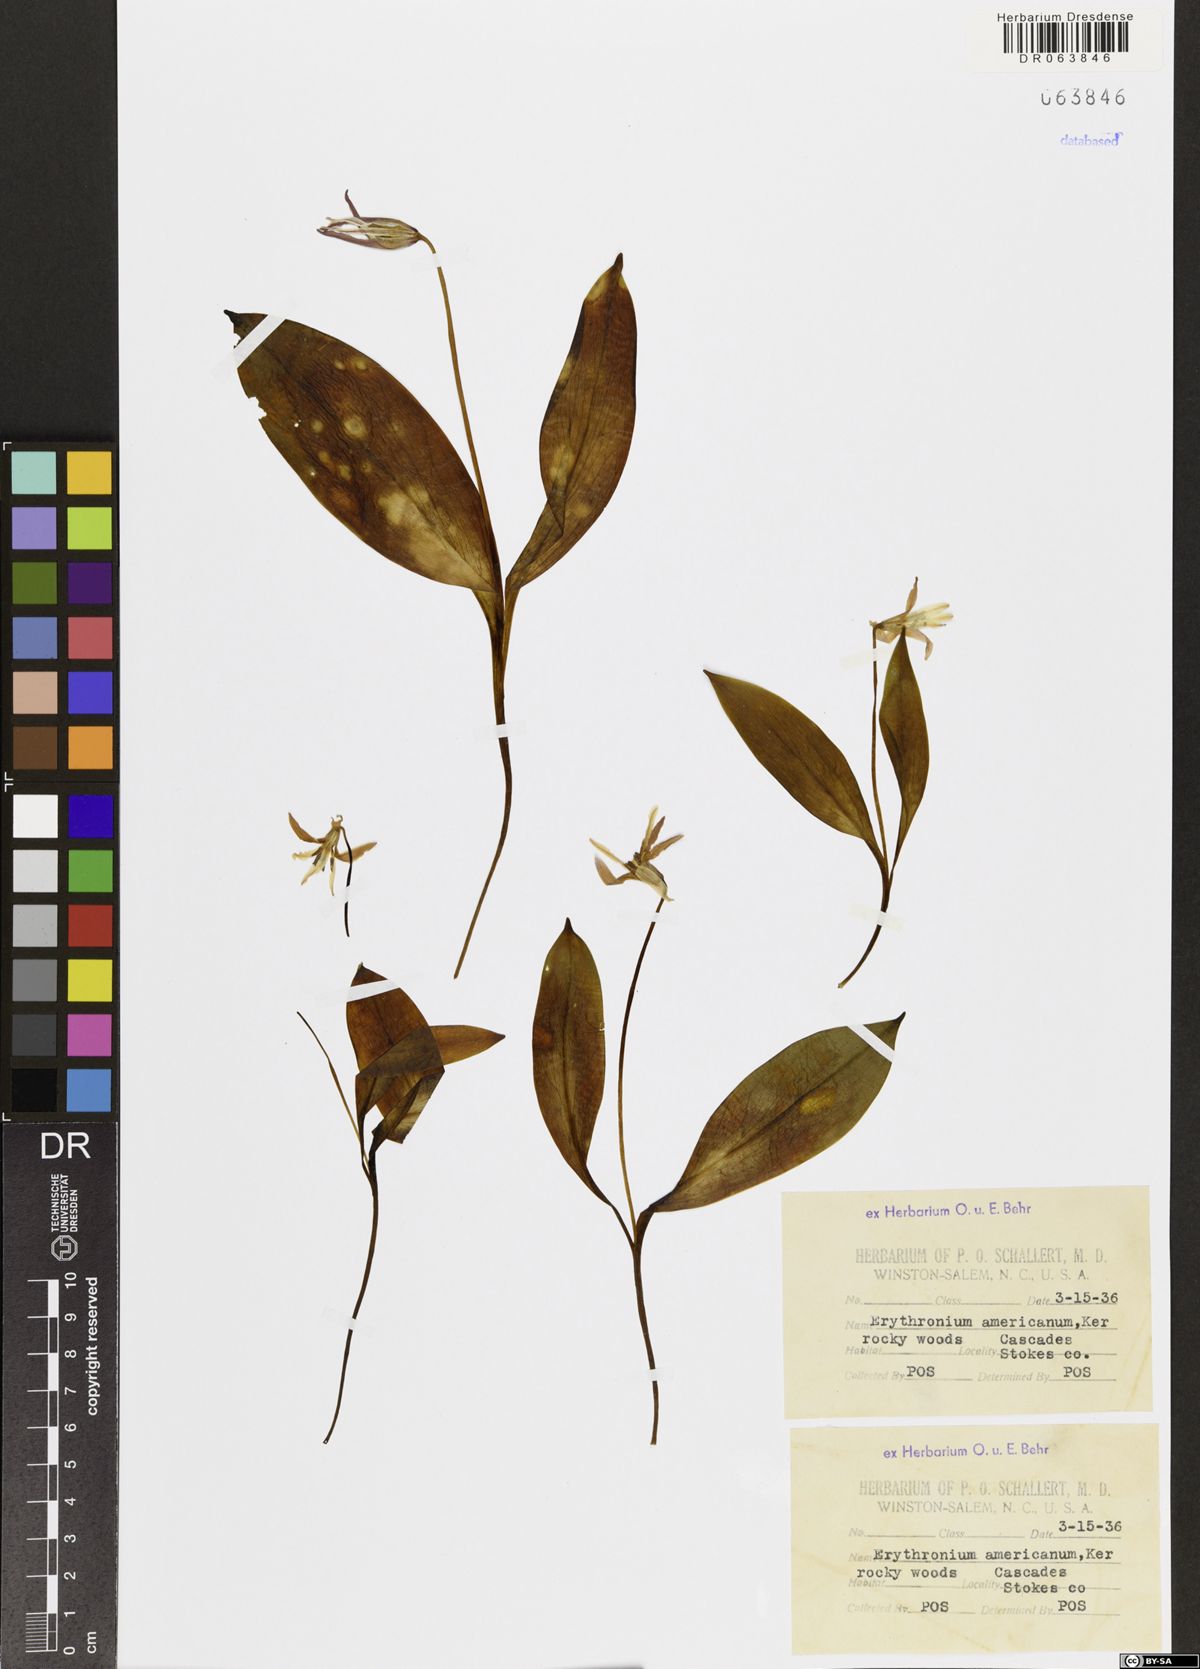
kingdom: Plantae
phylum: Tracheophyta
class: Liliopsida
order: Liliales
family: Liliaceae
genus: Erythronium
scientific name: Erythronium americanum
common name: Yellow adder's-tongue
